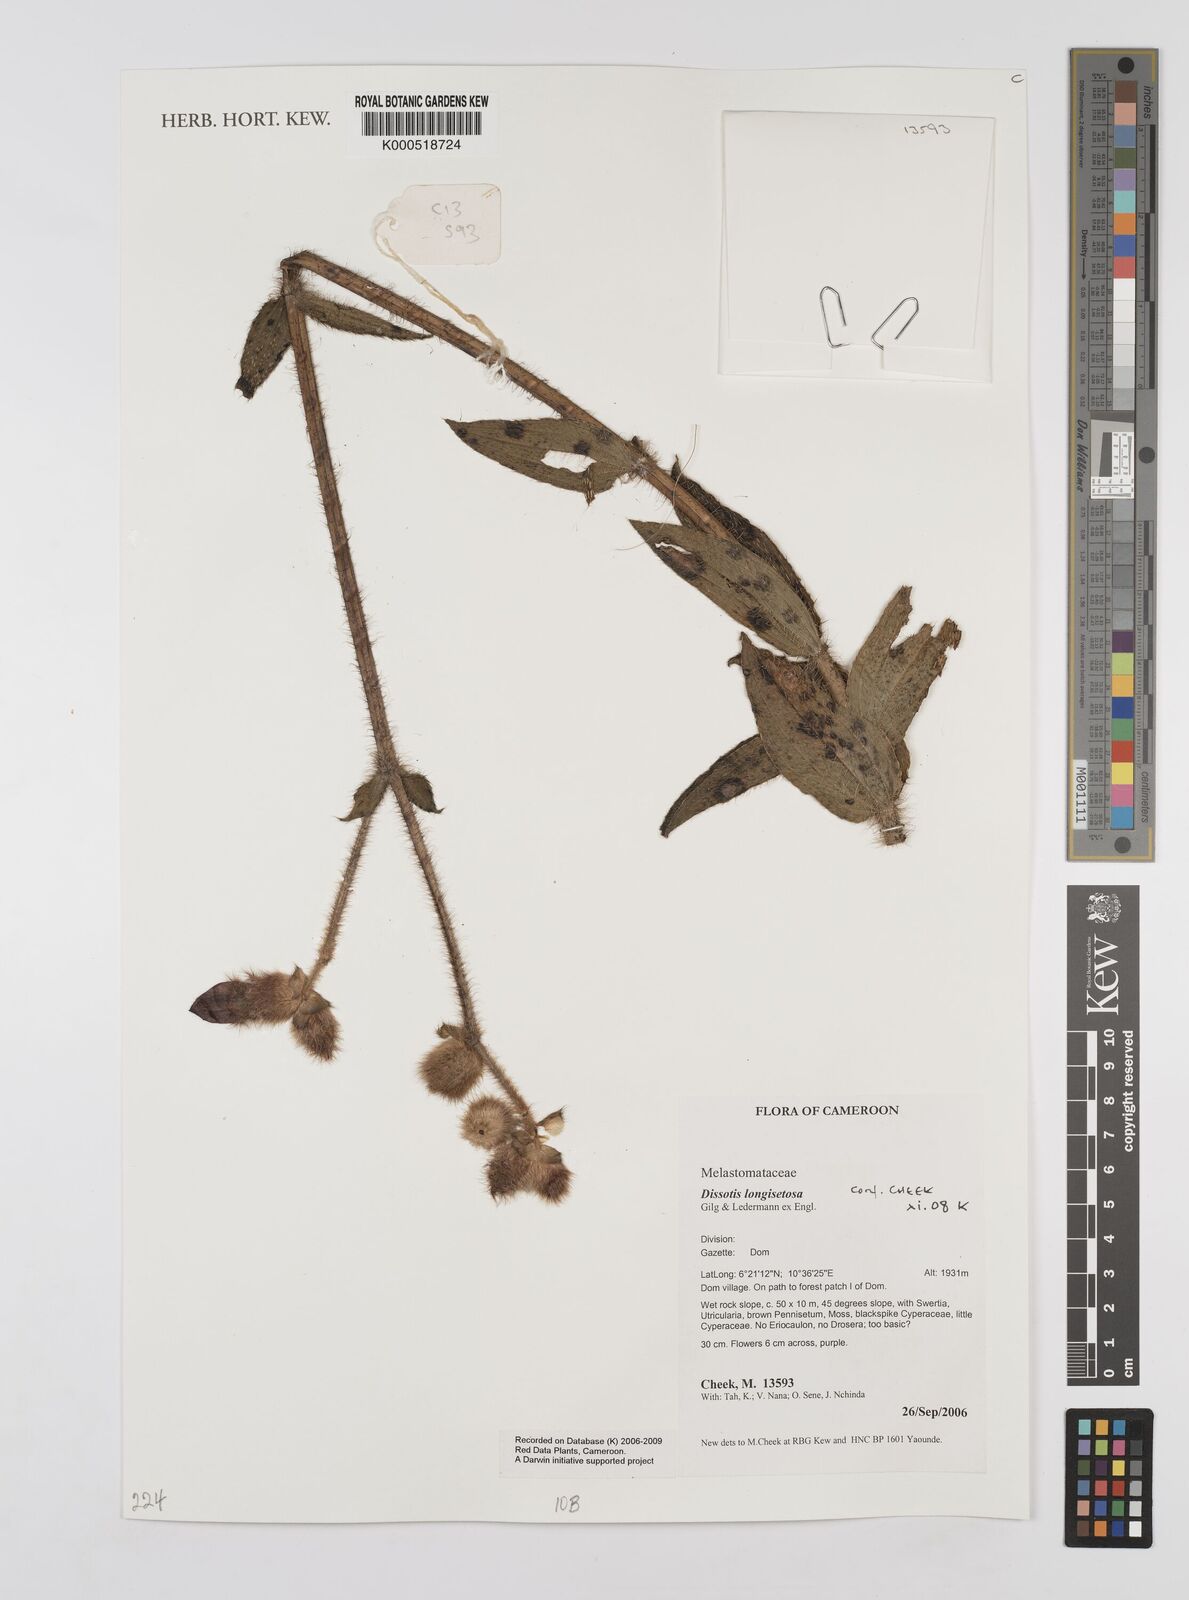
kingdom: Plantae
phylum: Tracheophyta
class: Magnoliopsida
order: Myrtales
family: Melastomataceae
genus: Dissotis
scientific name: Dissotis longisetosa
